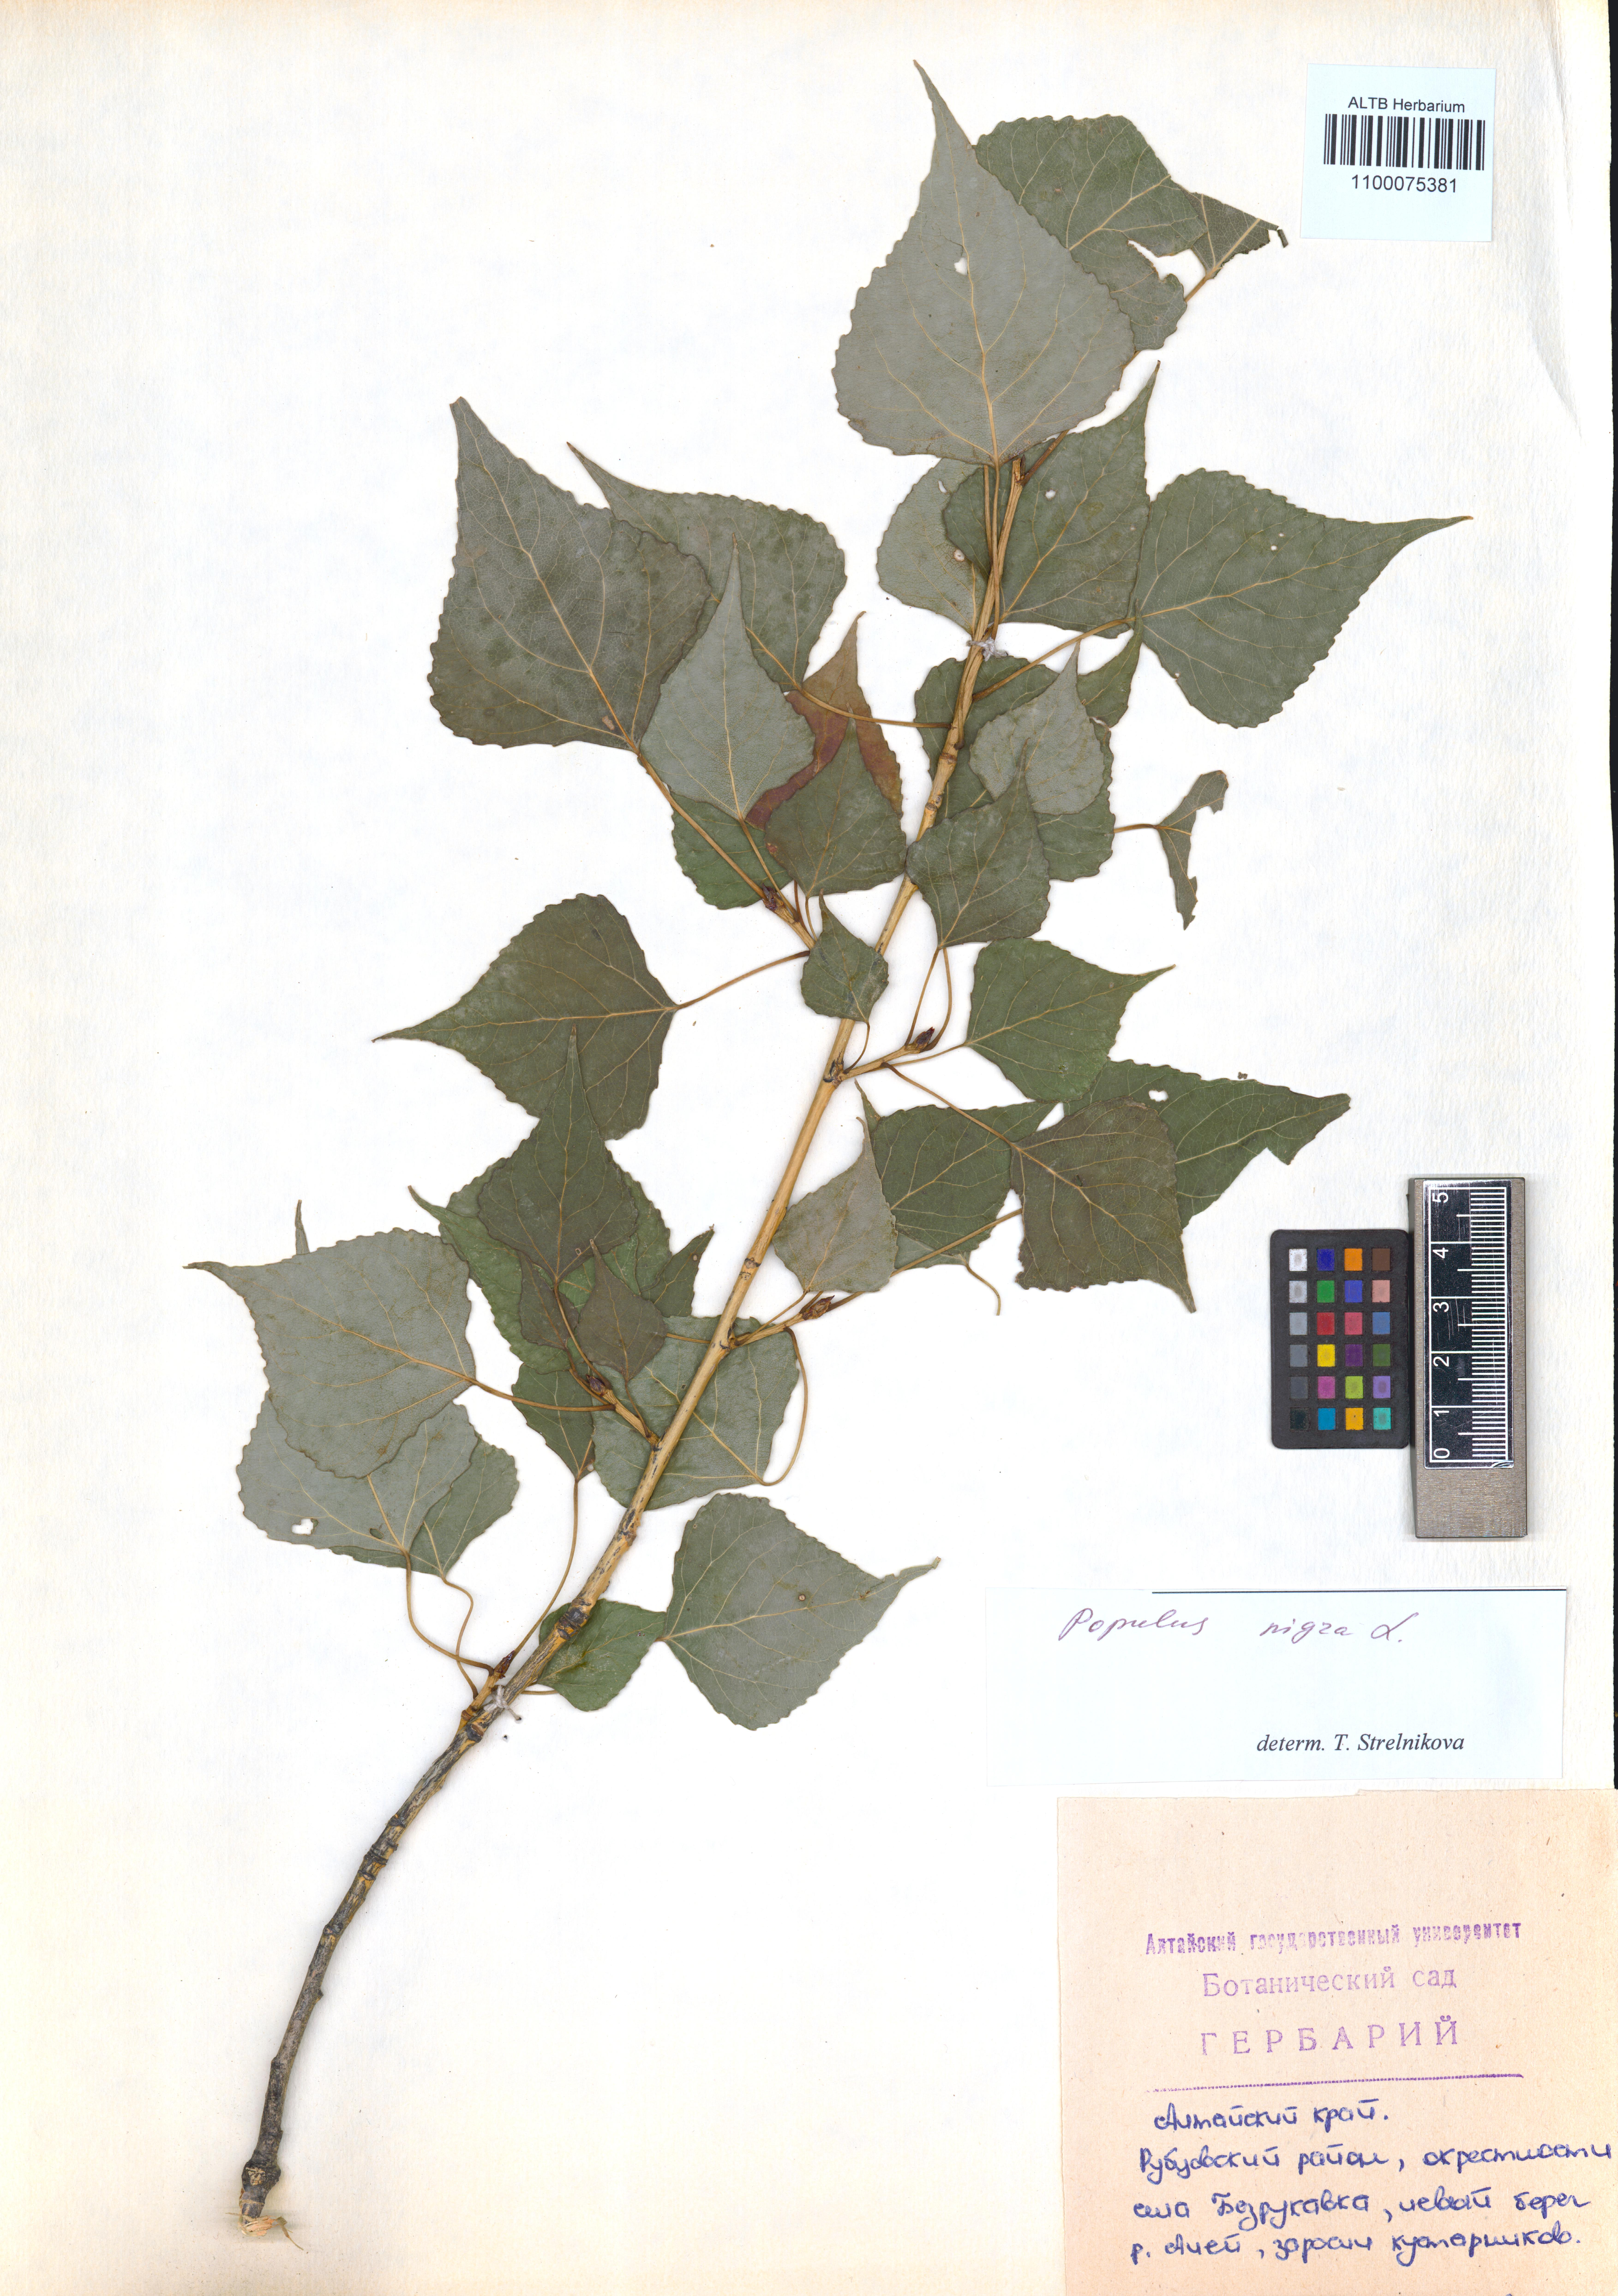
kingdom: Plantae
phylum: Tracheophyta
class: Magnoliopsida
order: Malpighiales
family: Salicaceae
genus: Populus
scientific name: Populus nigra
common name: Black poplar
